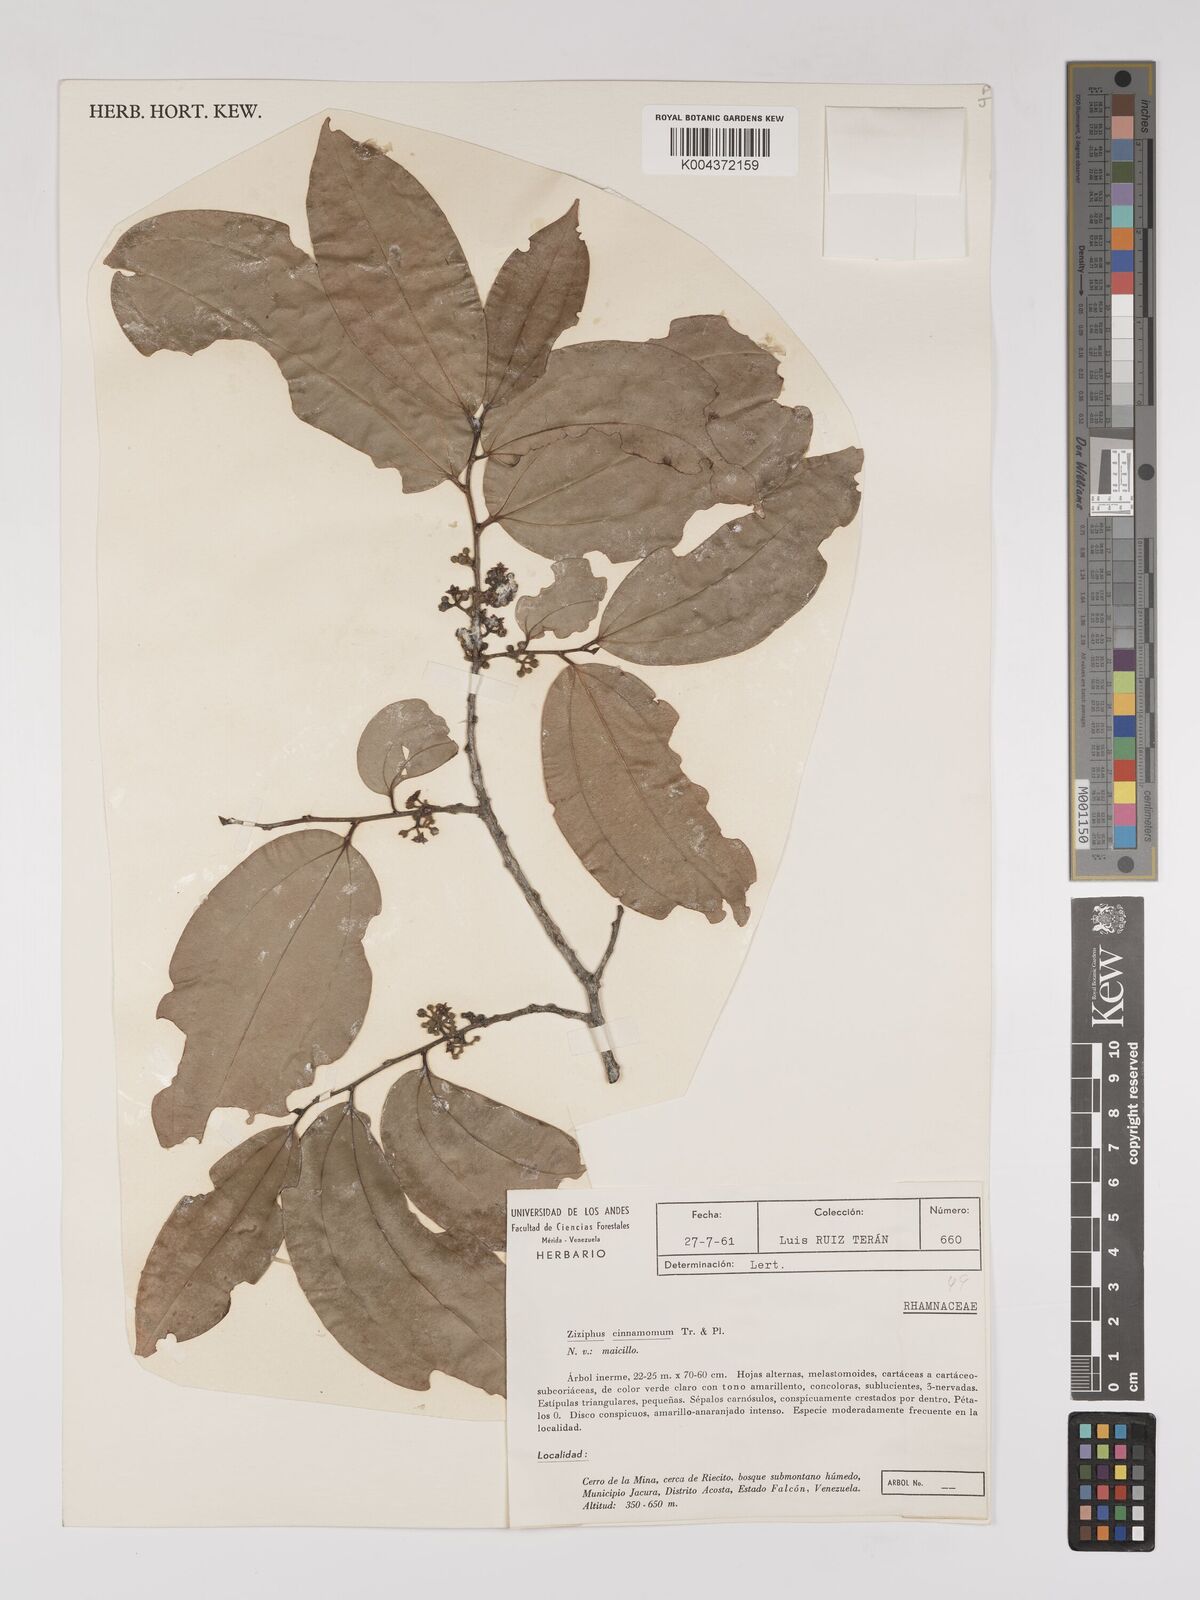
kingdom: Plantae
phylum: Tracheophyta
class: Magnoliopsida
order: Rosales
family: Rhamnaceae
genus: Sarcomphalus
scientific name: Sarcomphalus cinnamomum
